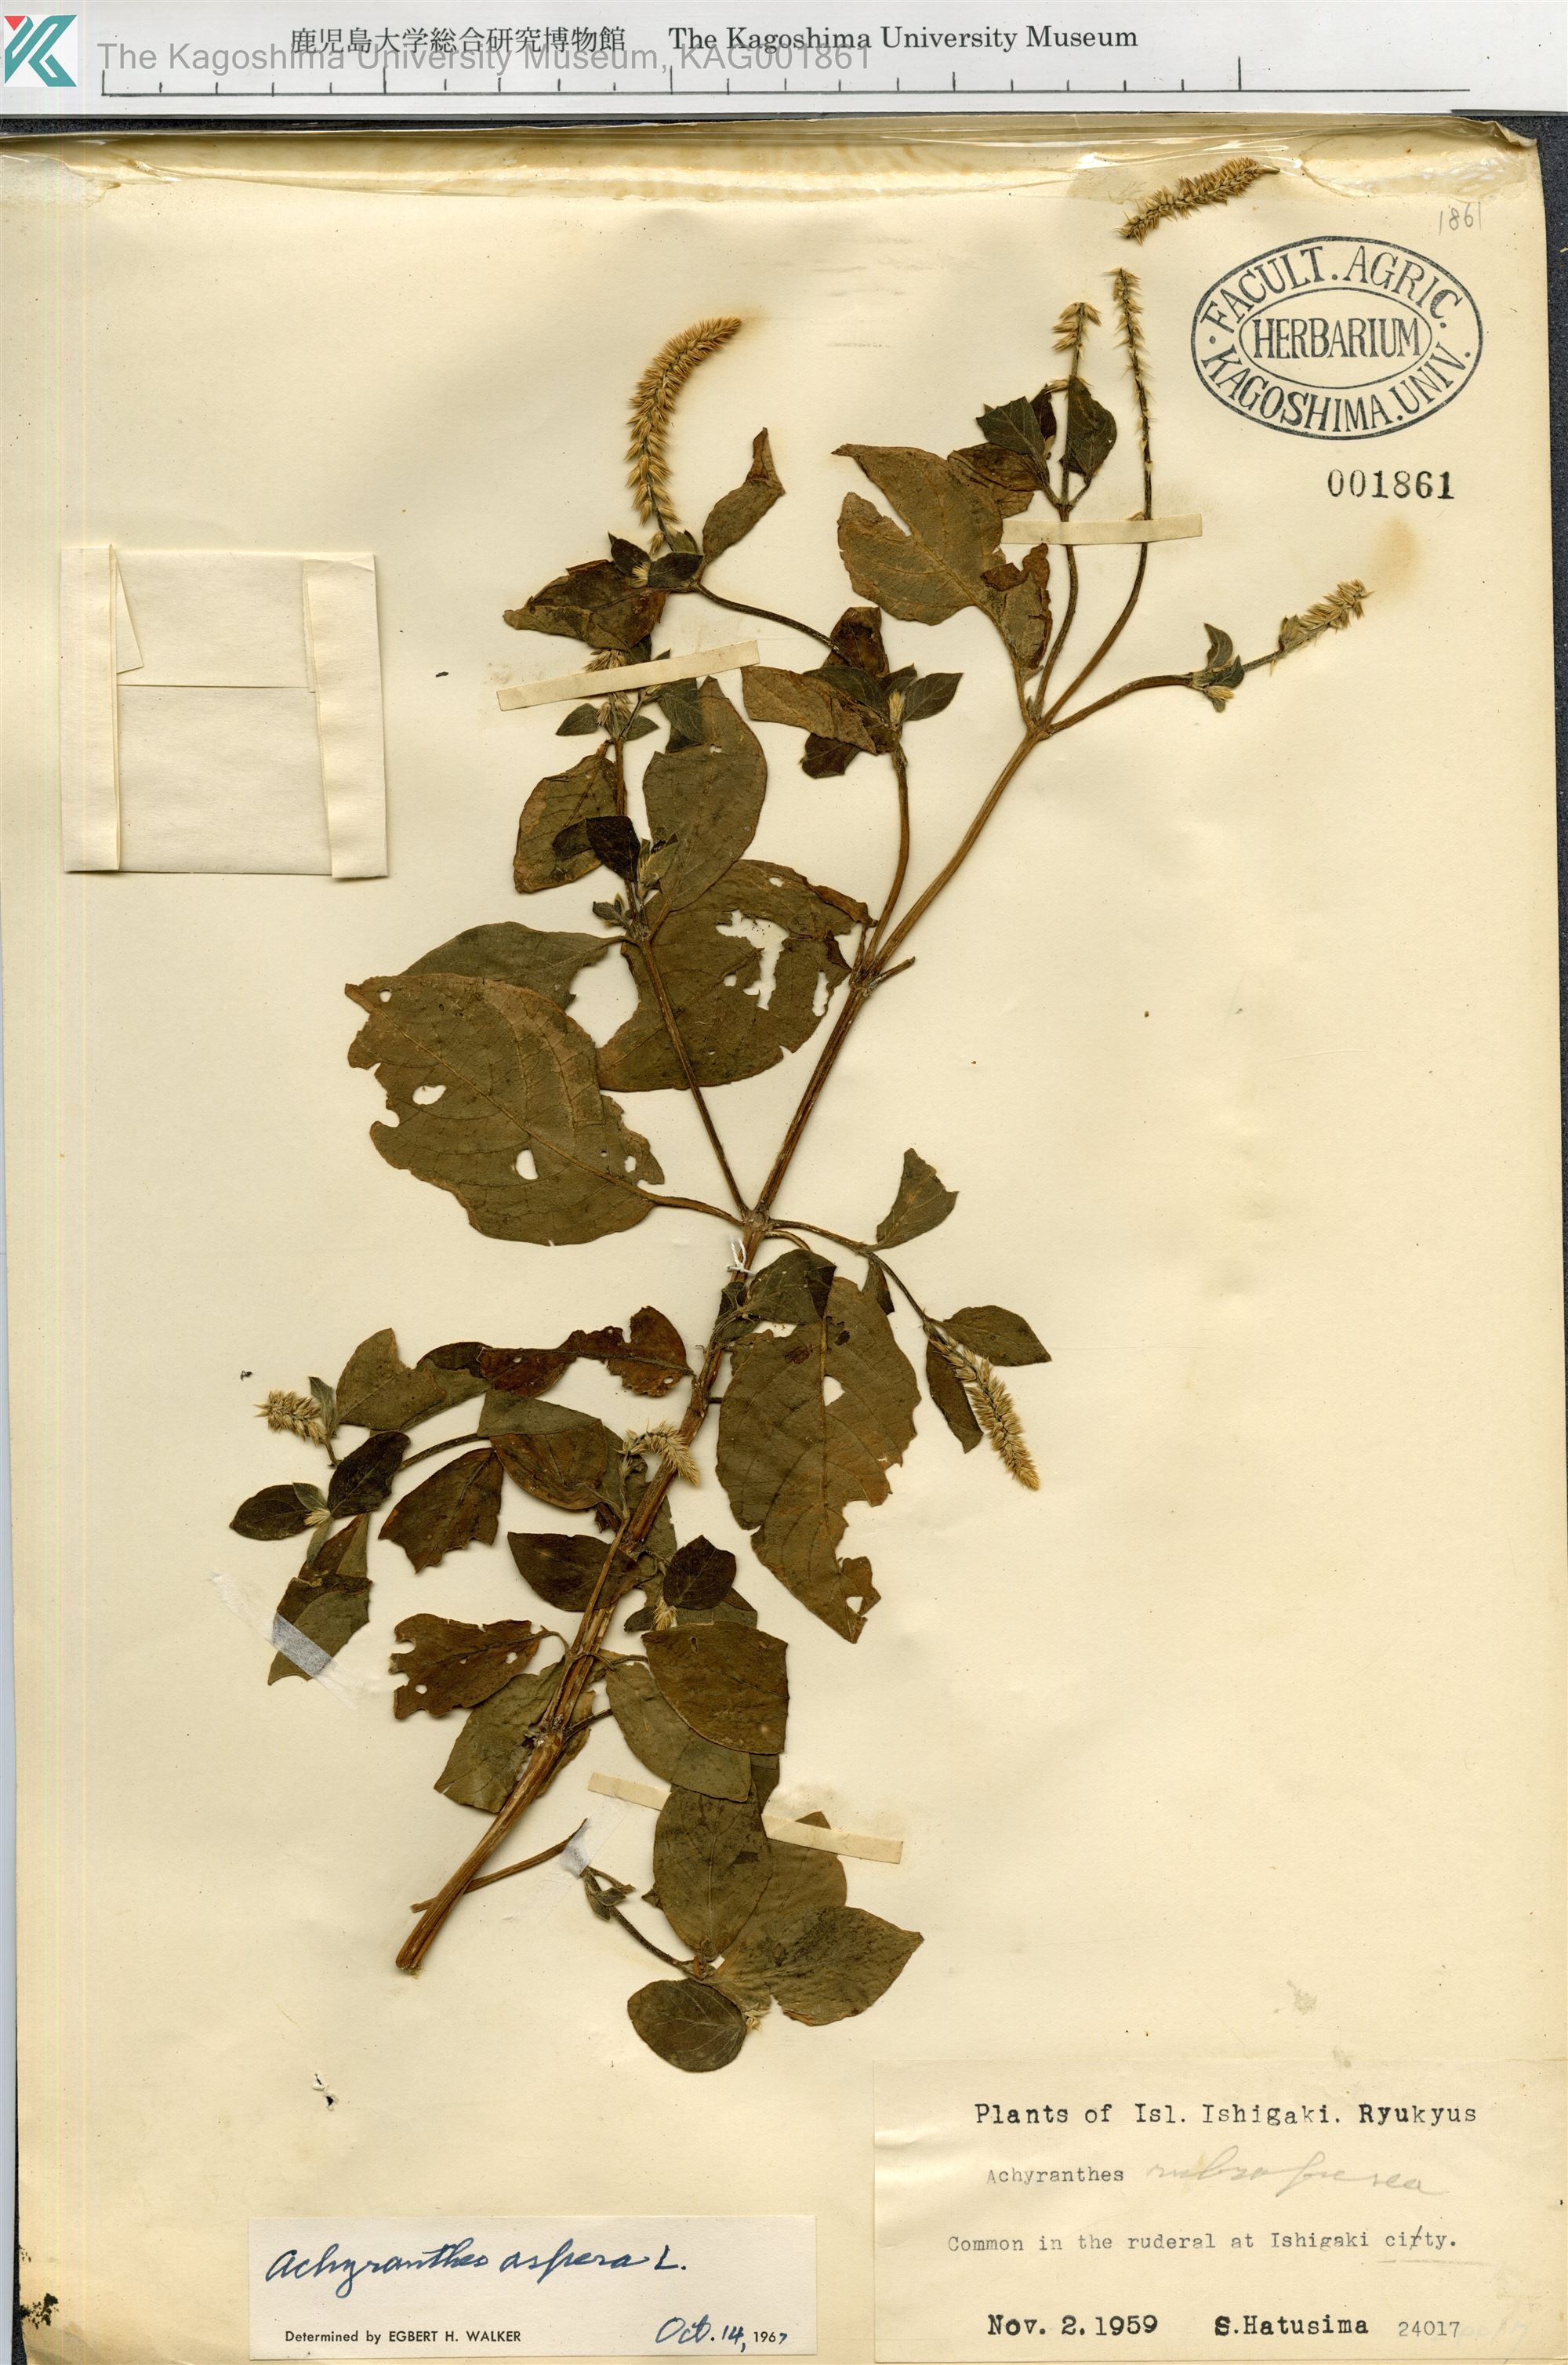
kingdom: Plantae
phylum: Tracheophyta
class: Magnoliopsida
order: Caryophyllales
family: Amaranthaceae
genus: Achyranthes
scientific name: Achyranthes aspera
